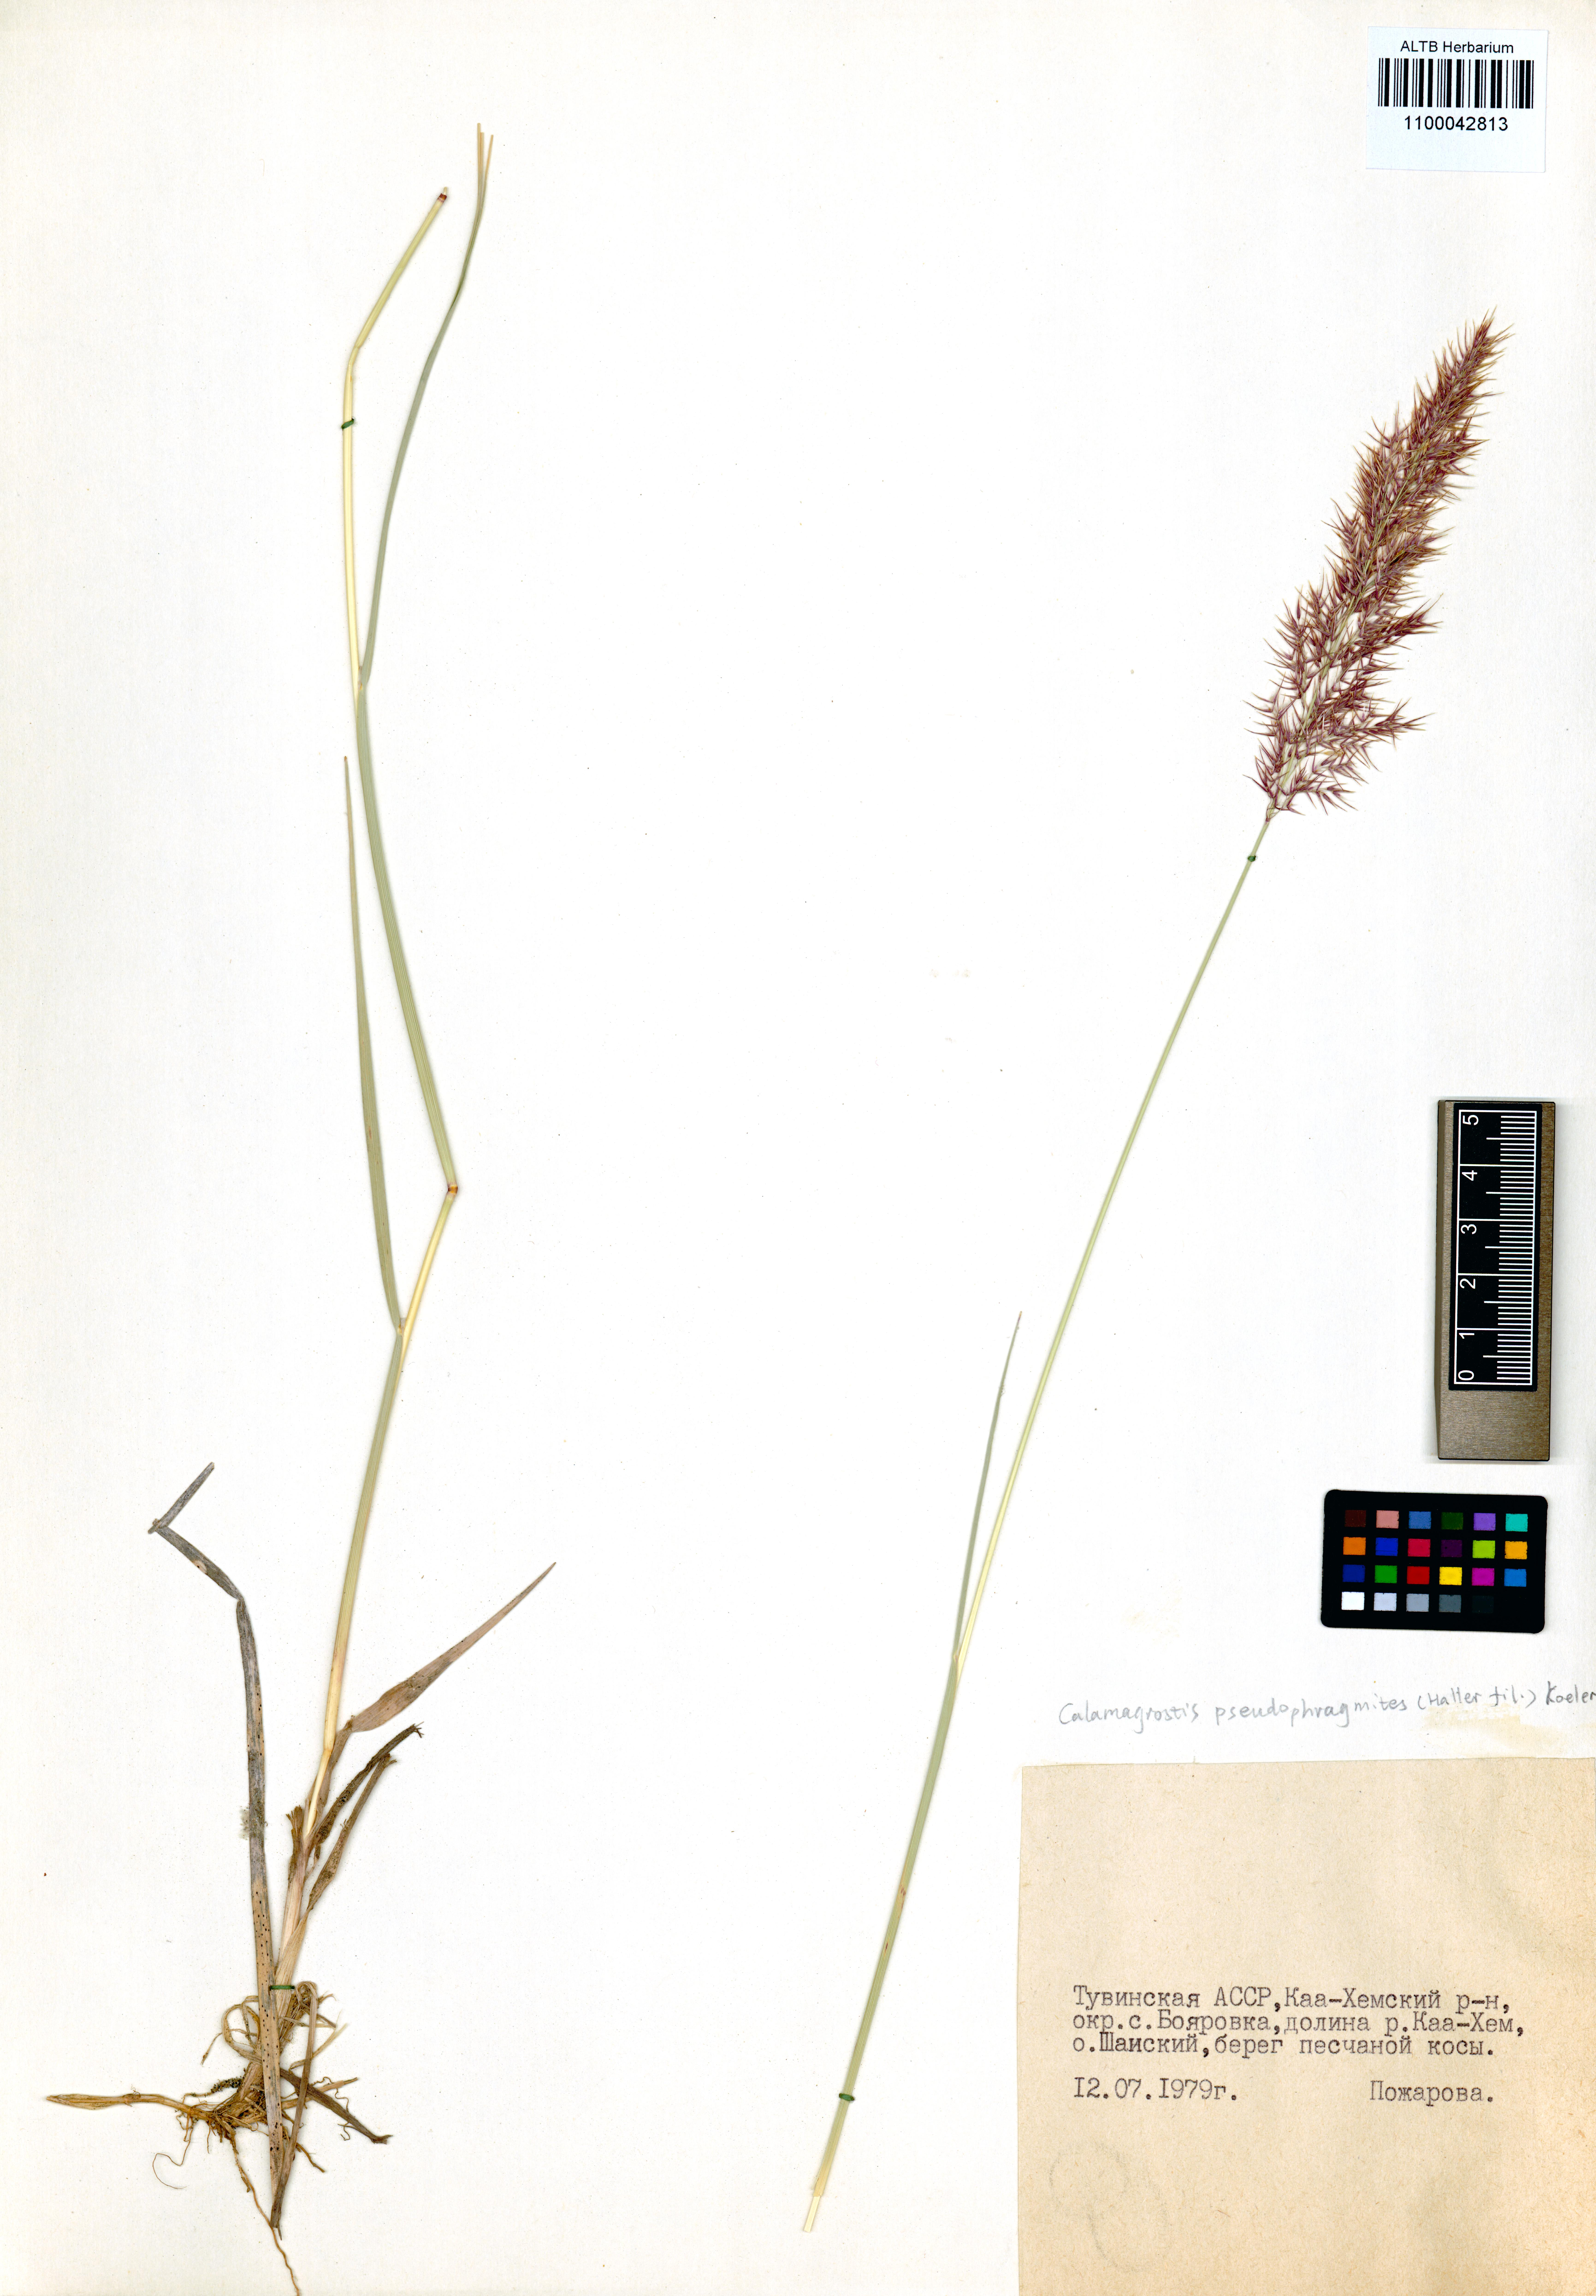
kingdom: Plantae
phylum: Tracheophyta
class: Liliopsida
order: Poales
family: Poaceae
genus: Calamagrostis
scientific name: Calamagrostis pseudophragmites
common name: Coastal small-reed
